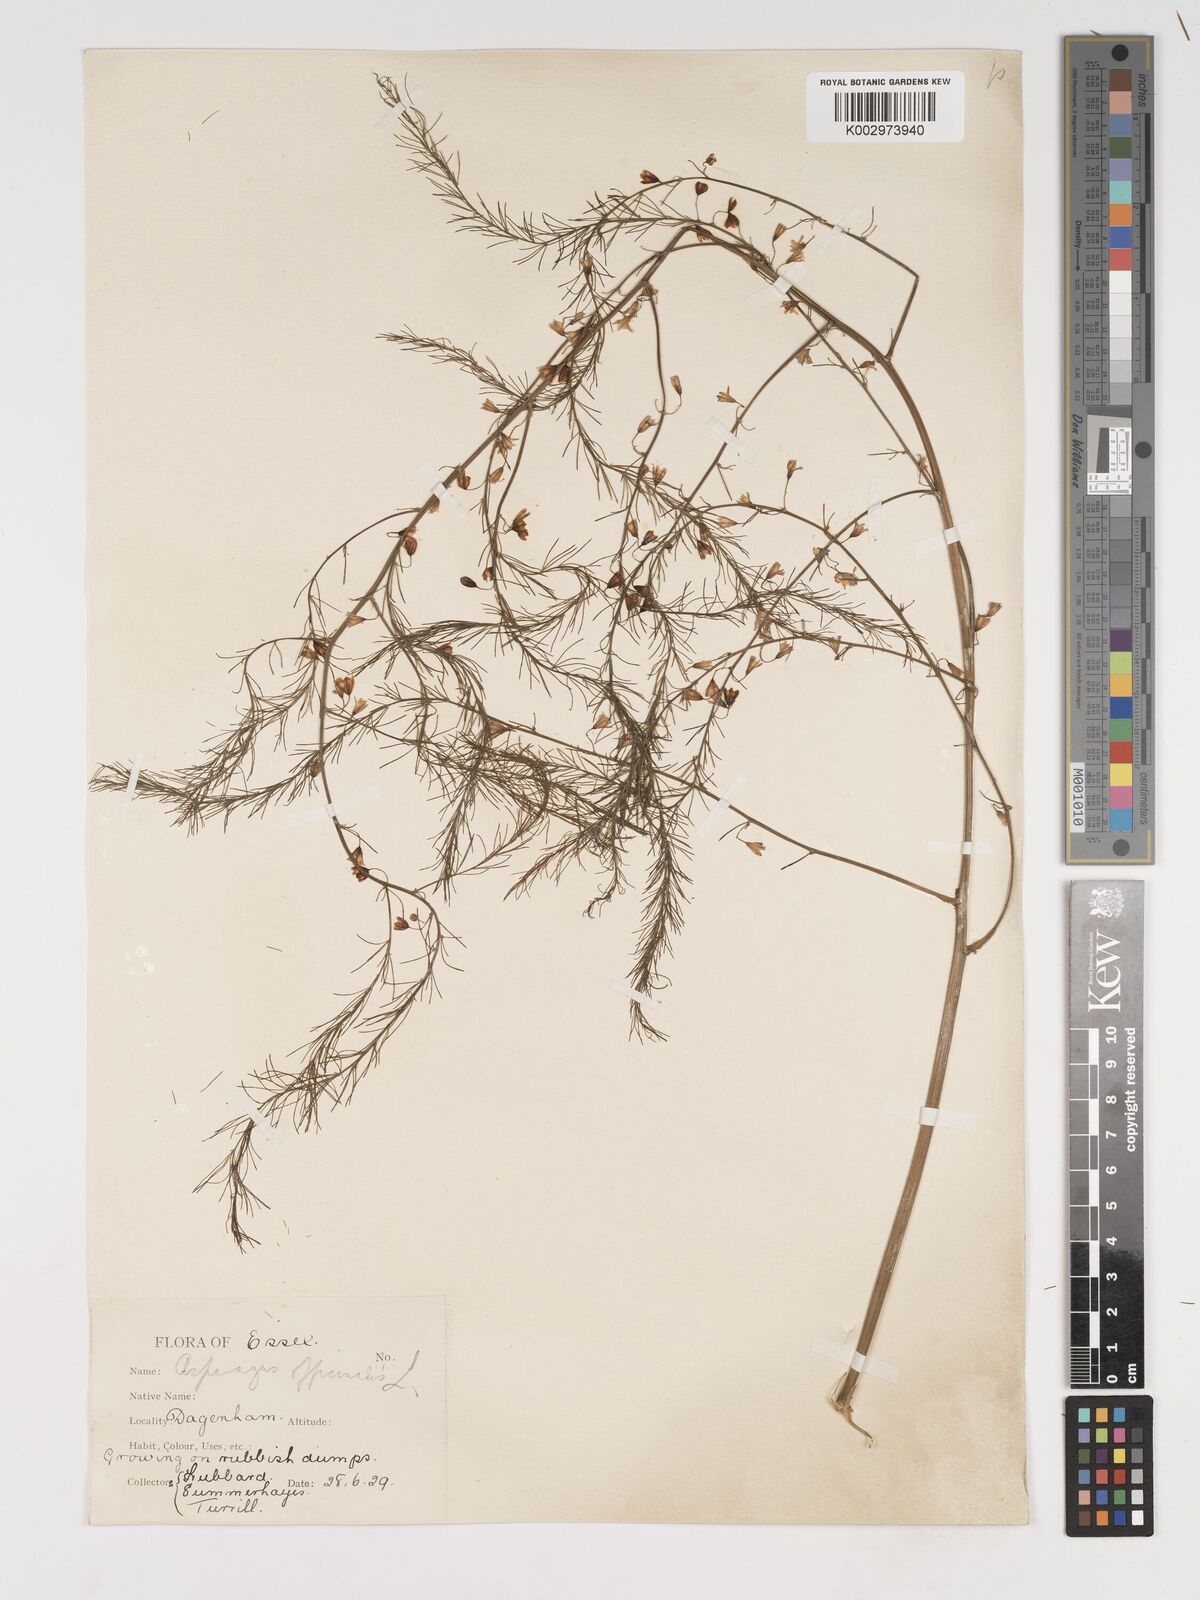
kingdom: Plantae
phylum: Tracheophyta
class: Liliopsida
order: Asparagales
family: Asparagaceae
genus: Asparagus
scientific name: Asparagus officinalis
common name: Garden asparagus
